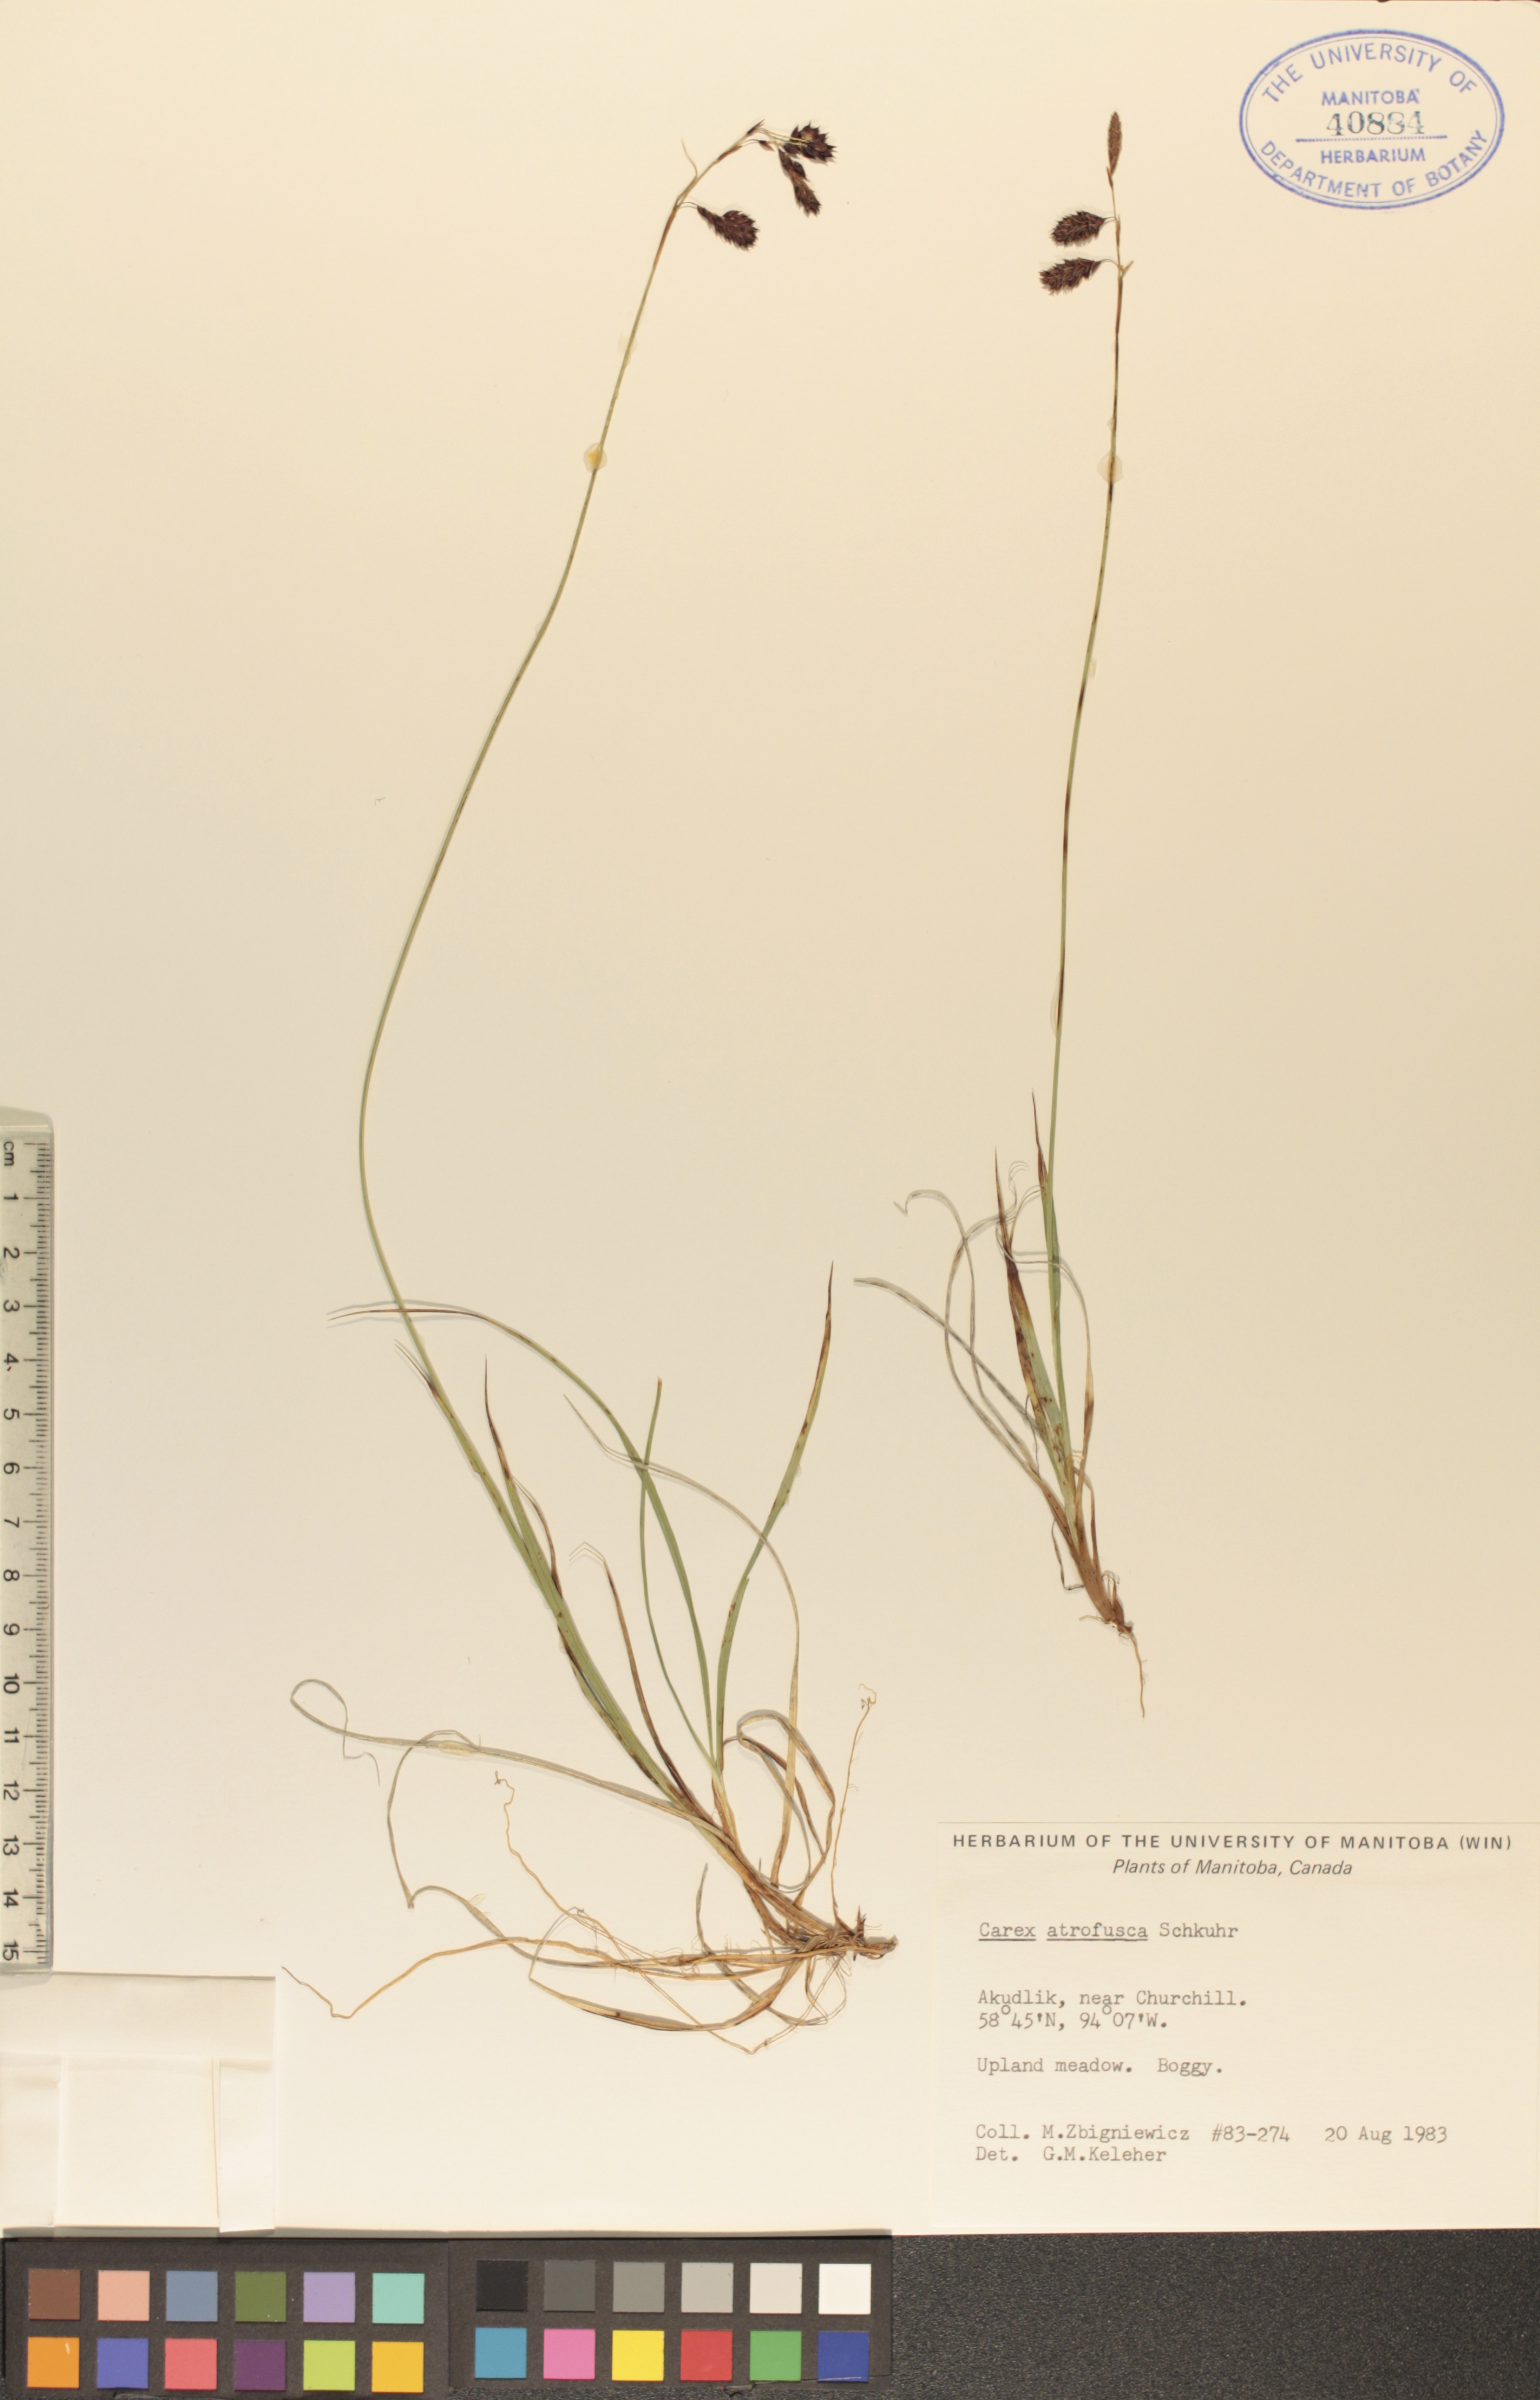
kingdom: Plantae
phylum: Tracheophyta
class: Liliopsida
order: Poales
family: Cyperaceae
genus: Carex
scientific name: Carex pichinchensis
